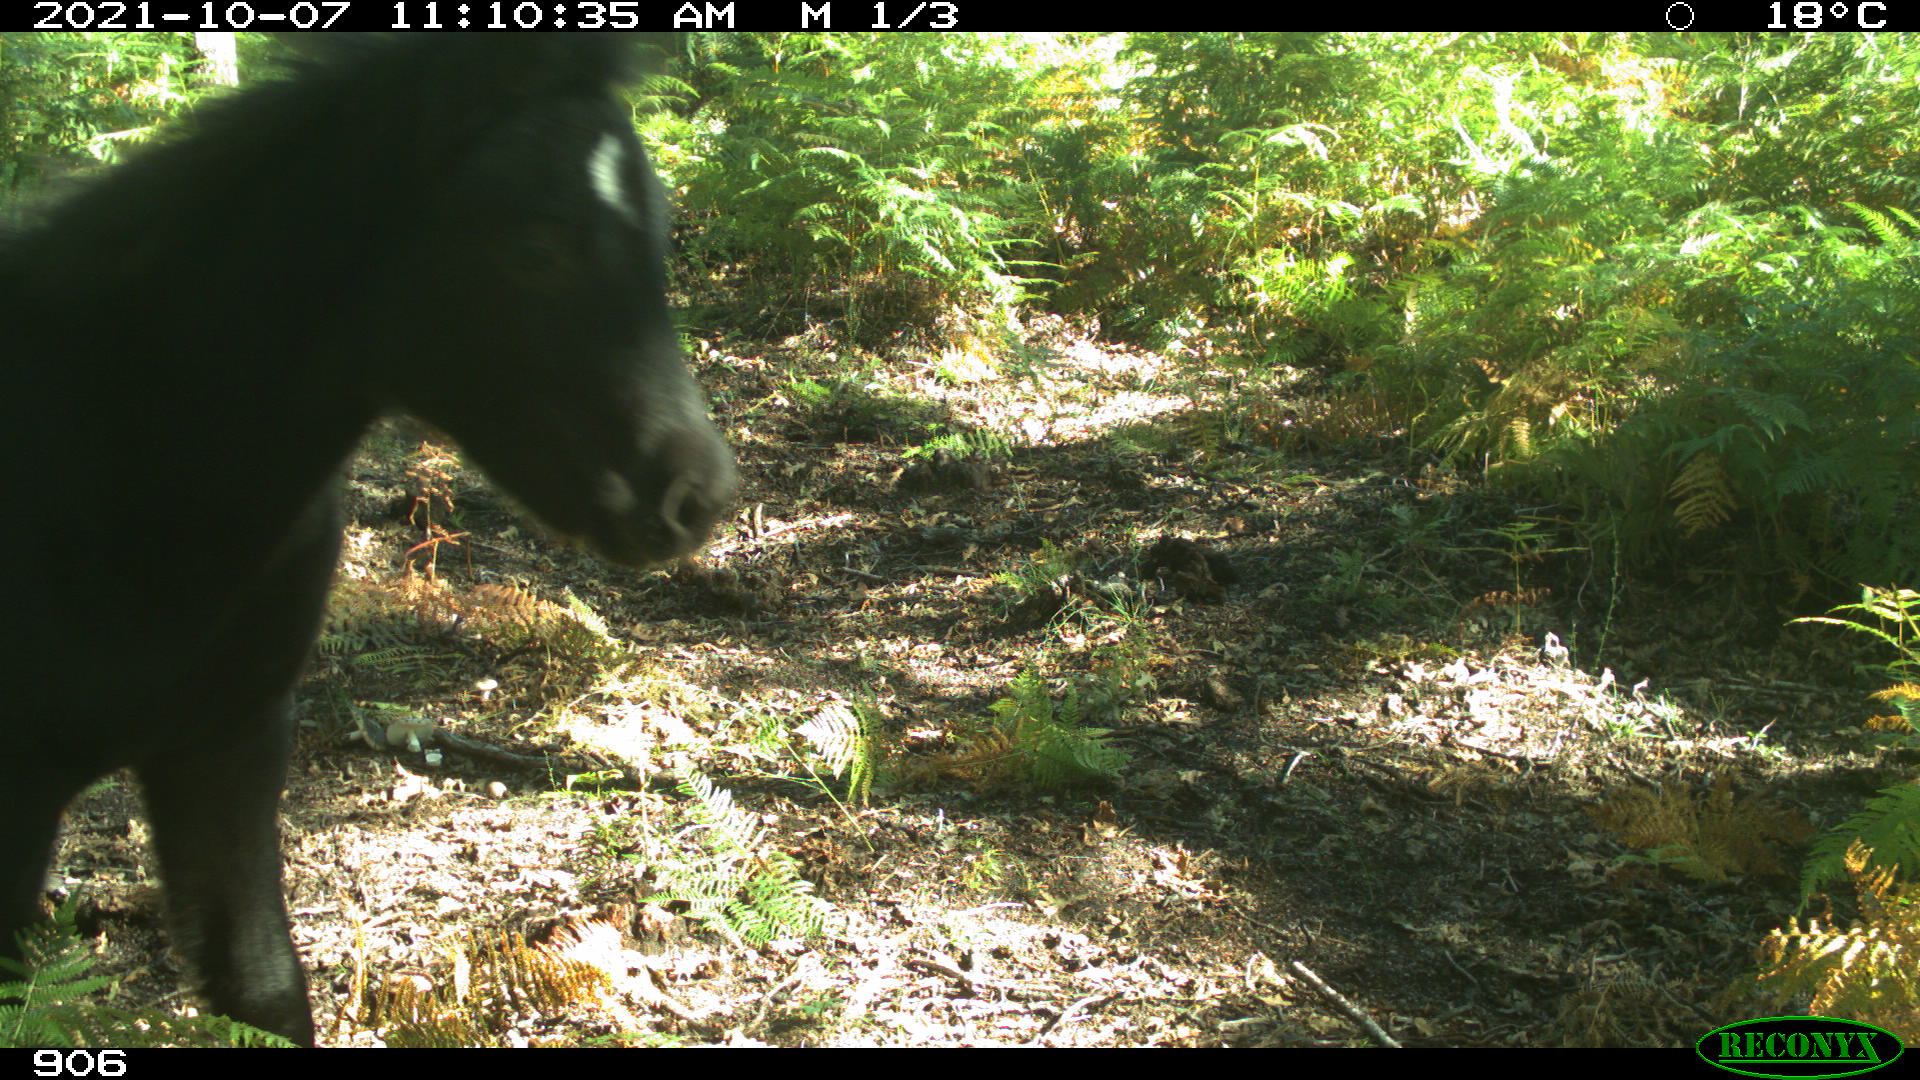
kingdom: Animalia
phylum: Chordata
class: Mammalia
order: Perissodactyla
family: Equidae
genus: Equus
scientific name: Equus caballus
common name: Horse
